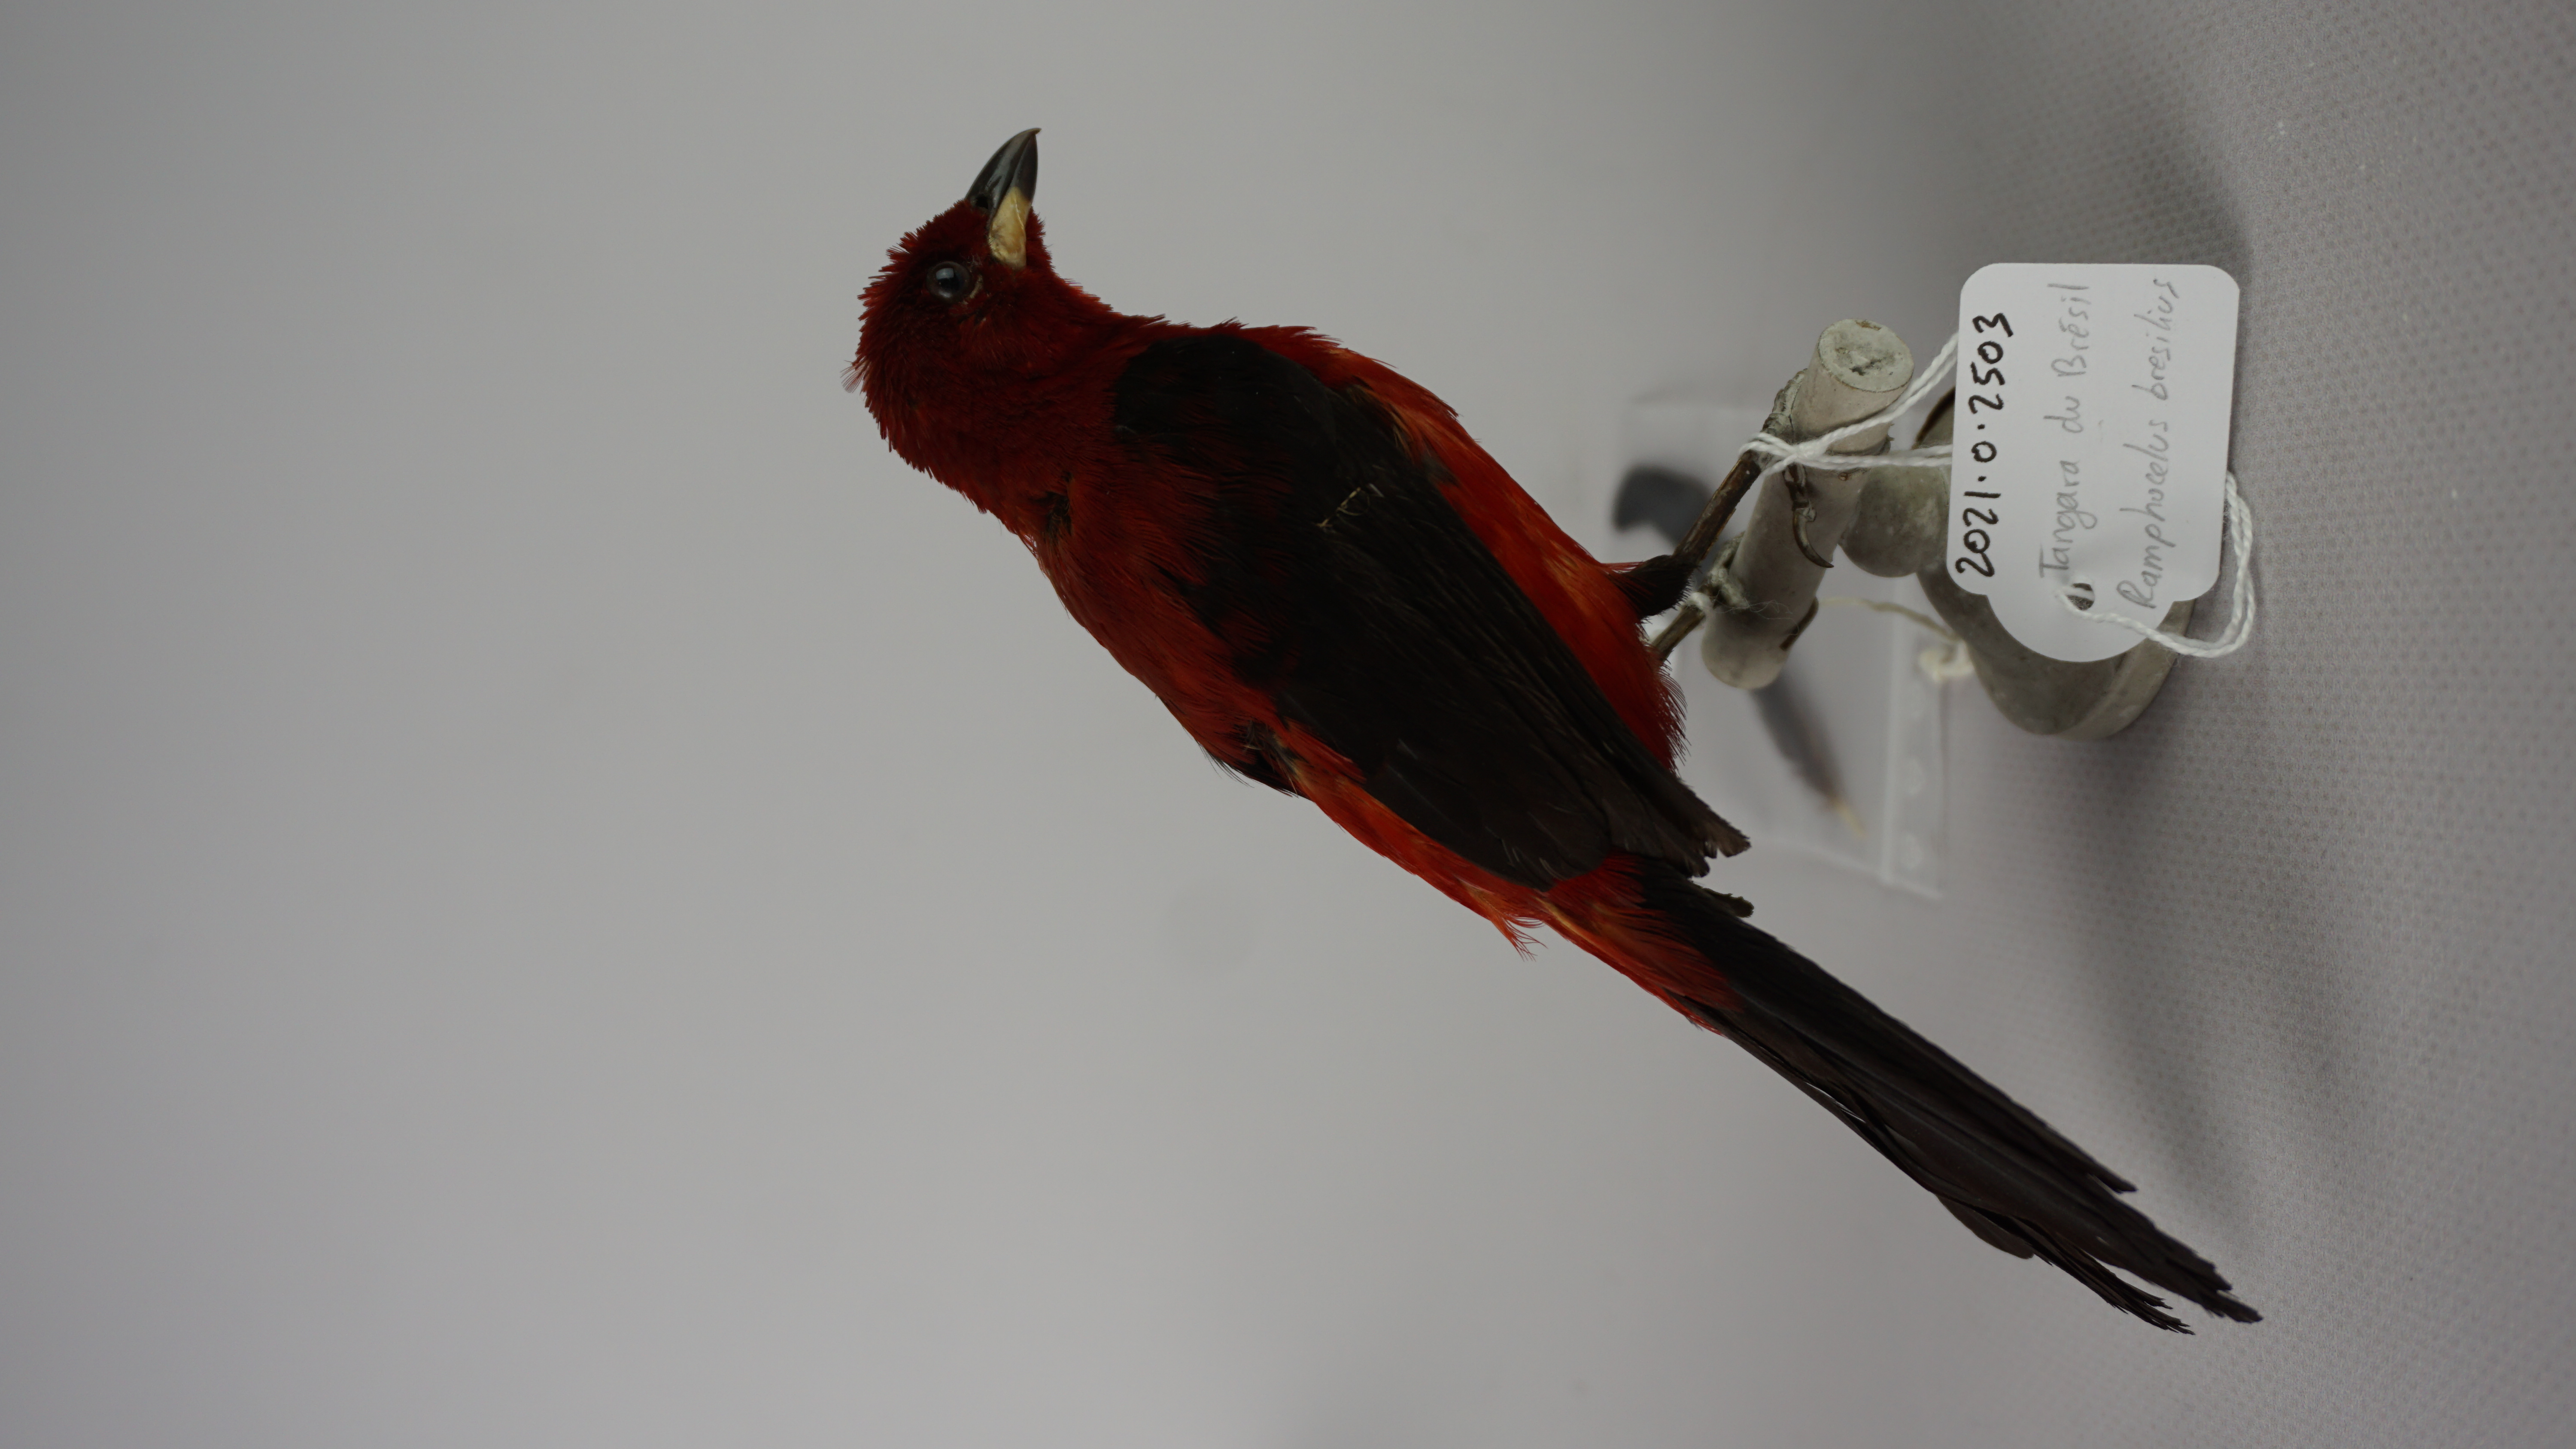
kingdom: Animalia
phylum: Chordata
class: Aves
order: Passeriformes
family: Thraupidae
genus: Ramphocelus
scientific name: Ramphocelus bresilia
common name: Brazilian tanager
